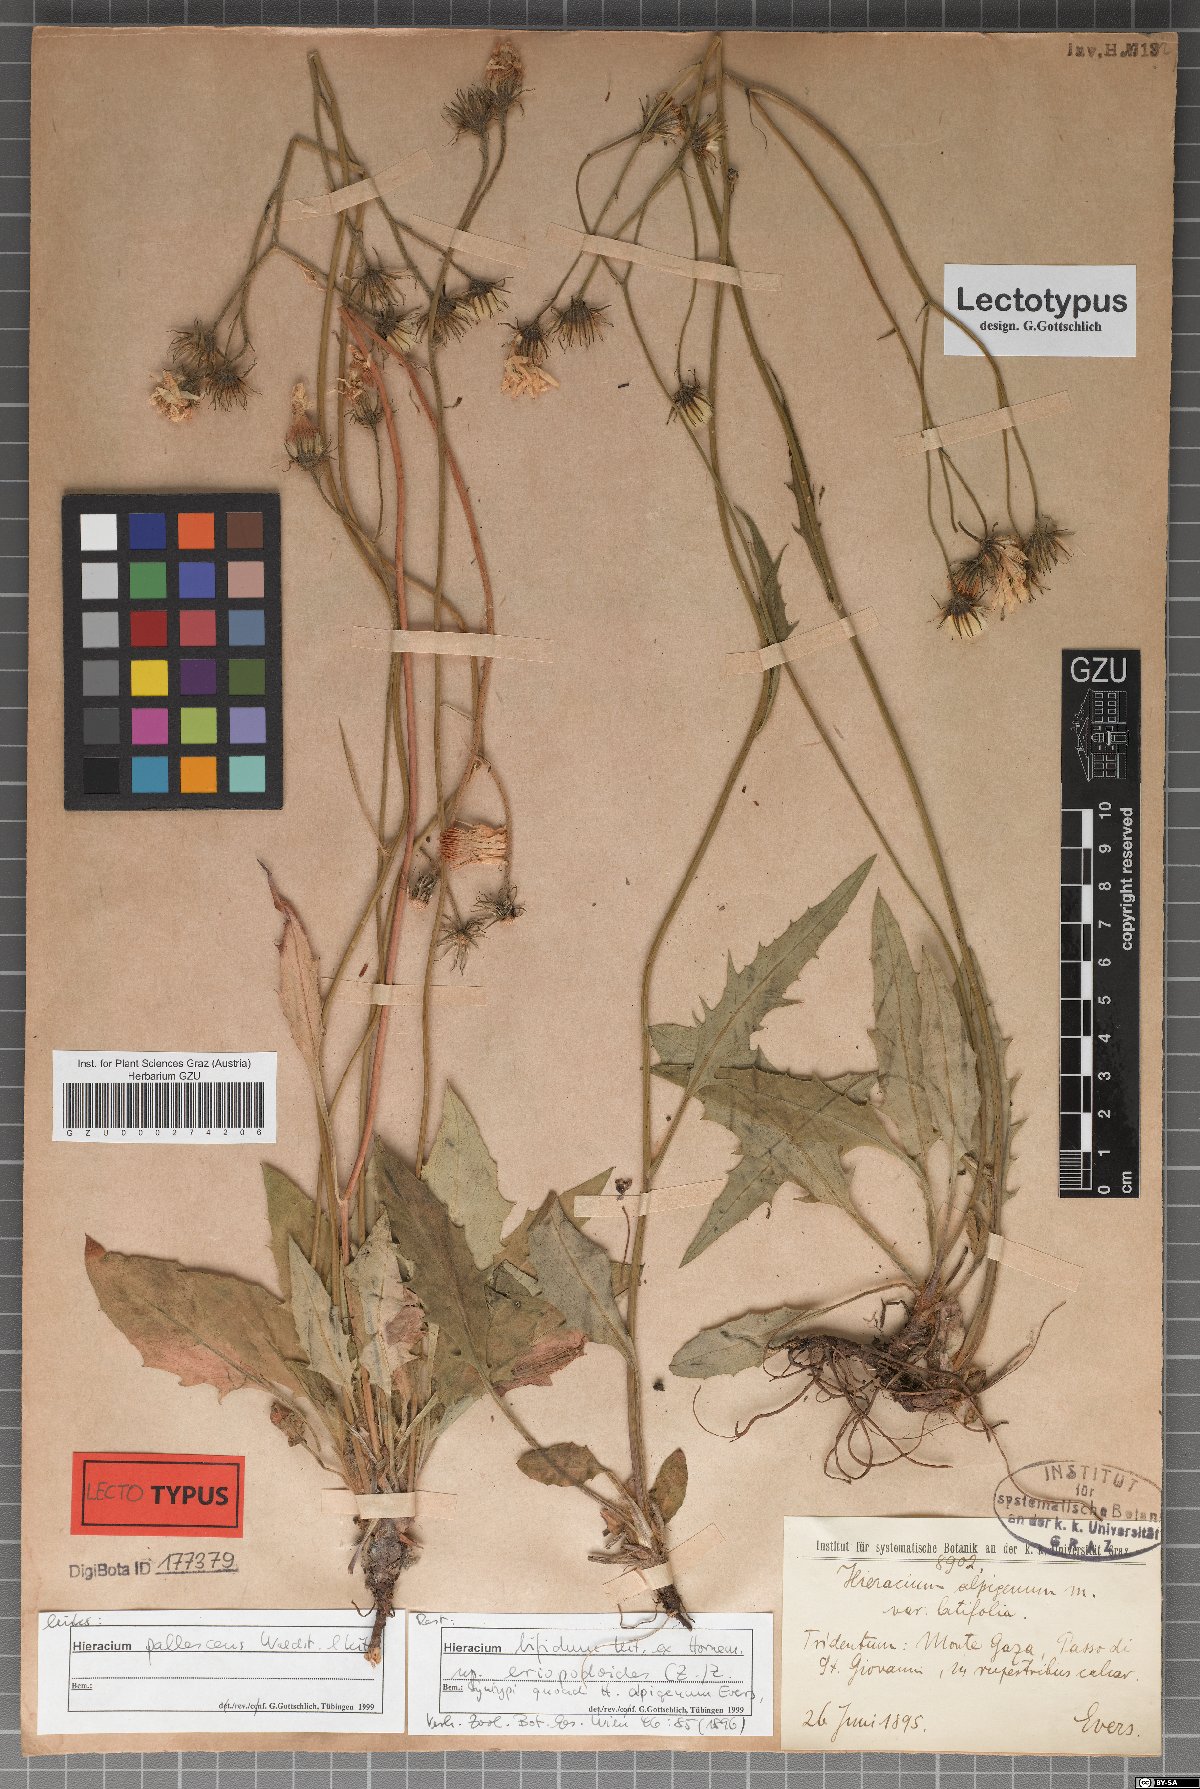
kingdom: Plantae
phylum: Tracheophyta
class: Magnoliopsida
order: Asterales
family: Asteraceae
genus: Hieracium
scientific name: Hieracium alpigena
